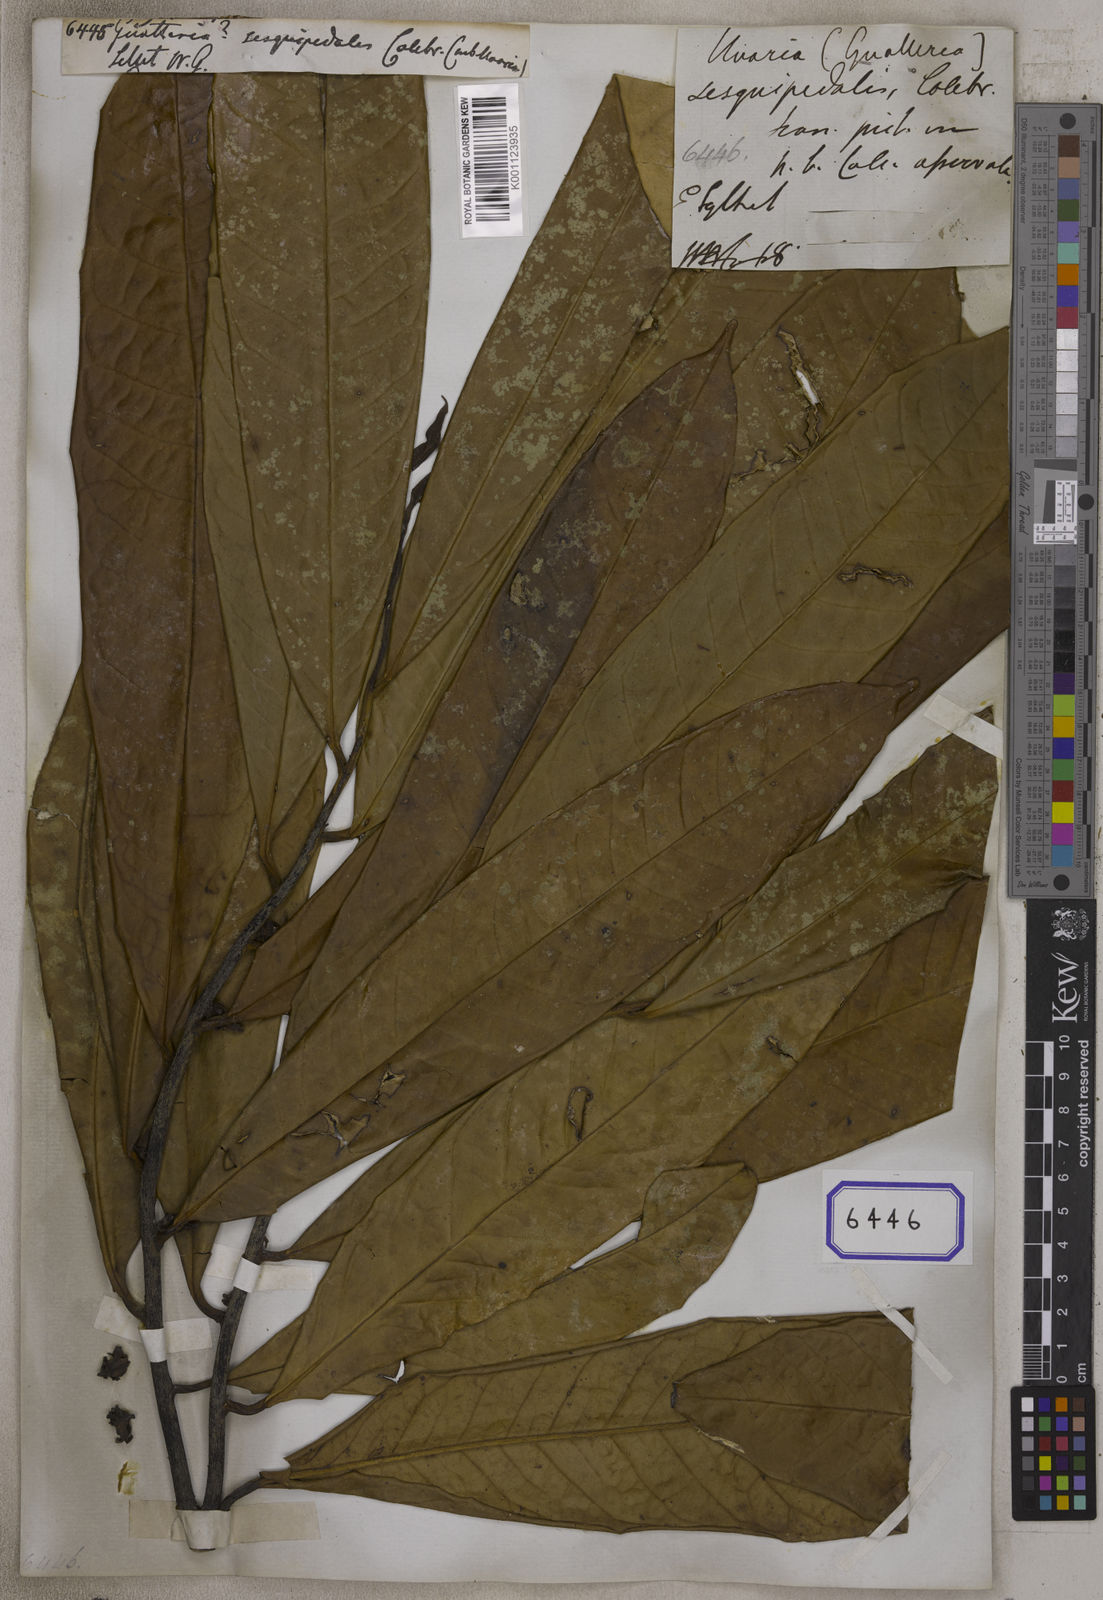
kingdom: Plantae
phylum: Tracheophyta
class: Magnoliopsida
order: Magnoliales
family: Annonaceae
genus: Goniothalamus
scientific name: Goniothalamus sesquipedalis
